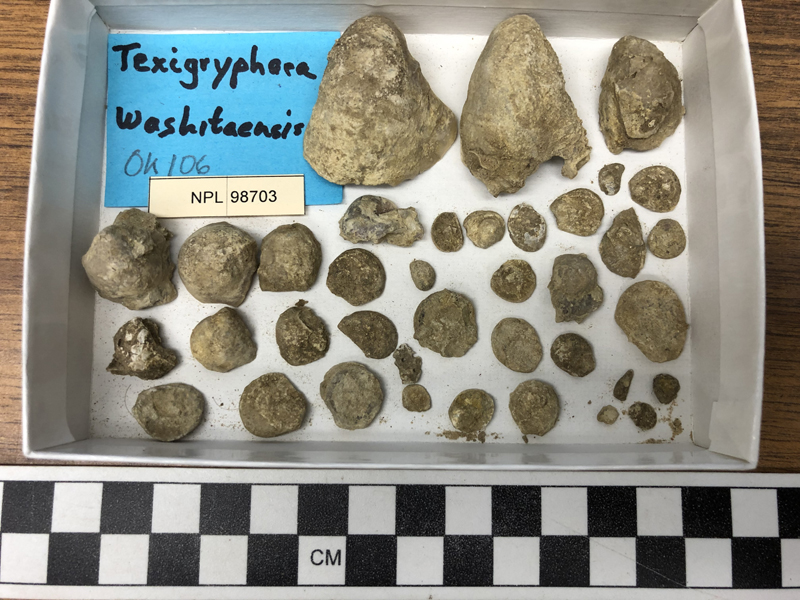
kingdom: Animalia
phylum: Mollusca
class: Bivalvia
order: Ostreida
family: Gryphaeidae
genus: Texigryphaea
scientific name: Texigryphaea
